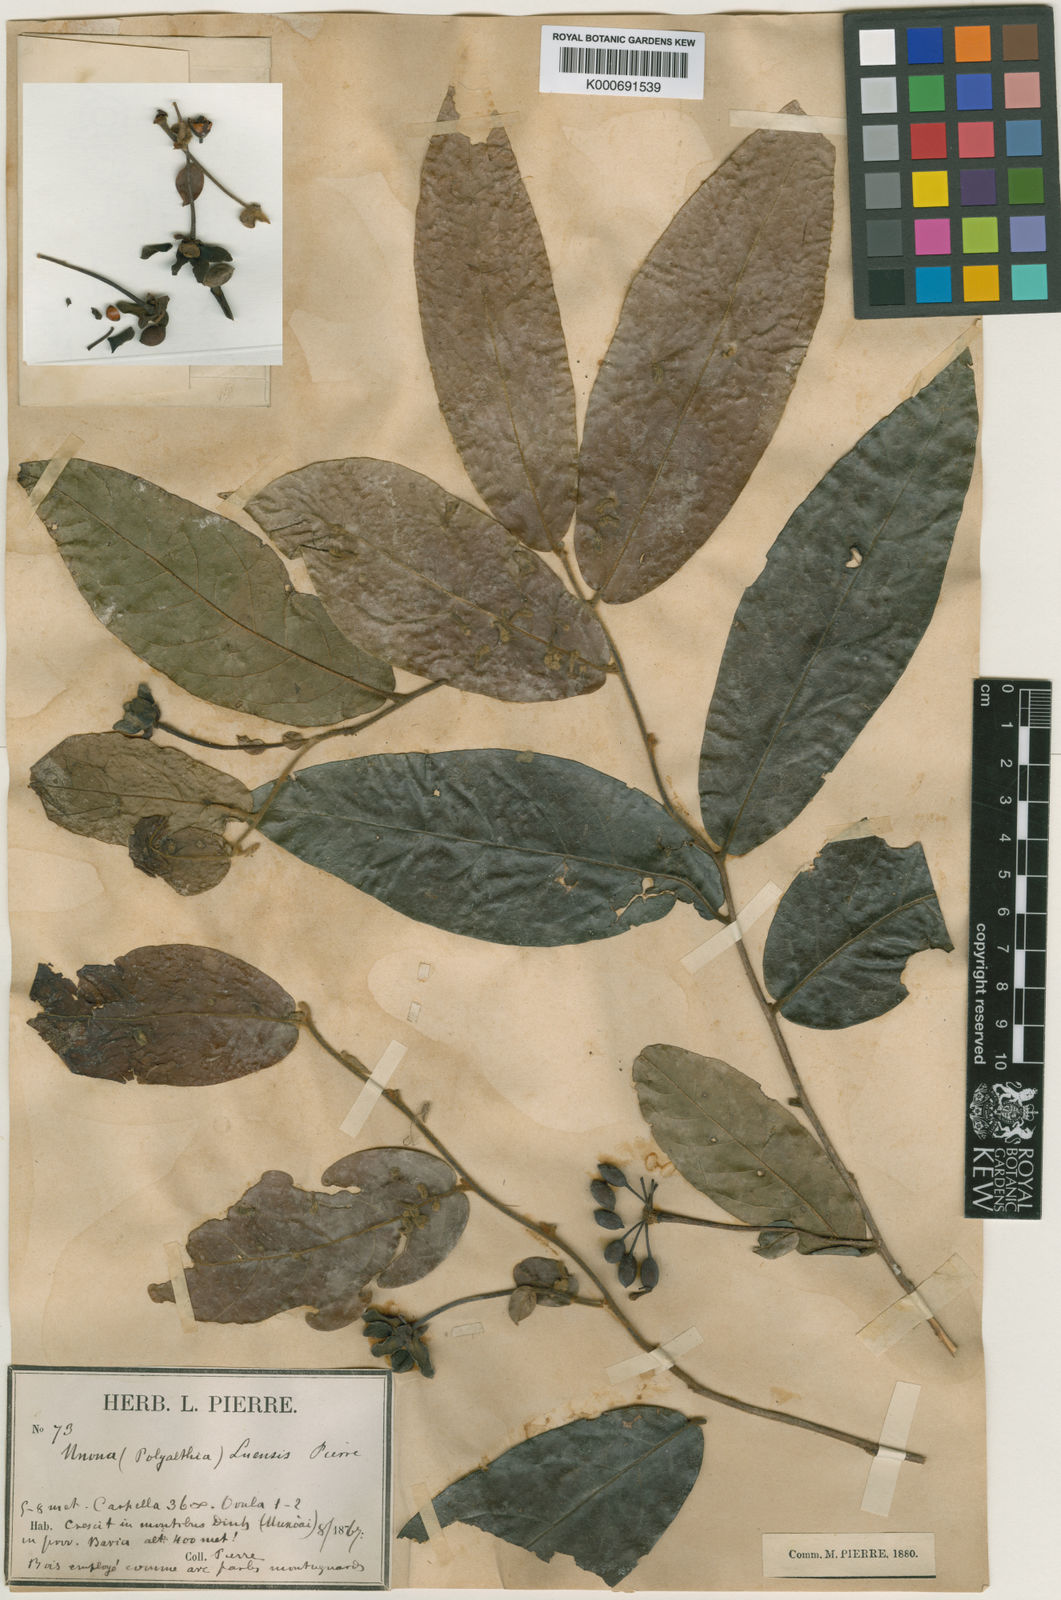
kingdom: Plantae
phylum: Tracheophyta
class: Magnoliopsida
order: Magnoliales
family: Annonaceae
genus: Polyalthia
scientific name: Polyalthia luensis
